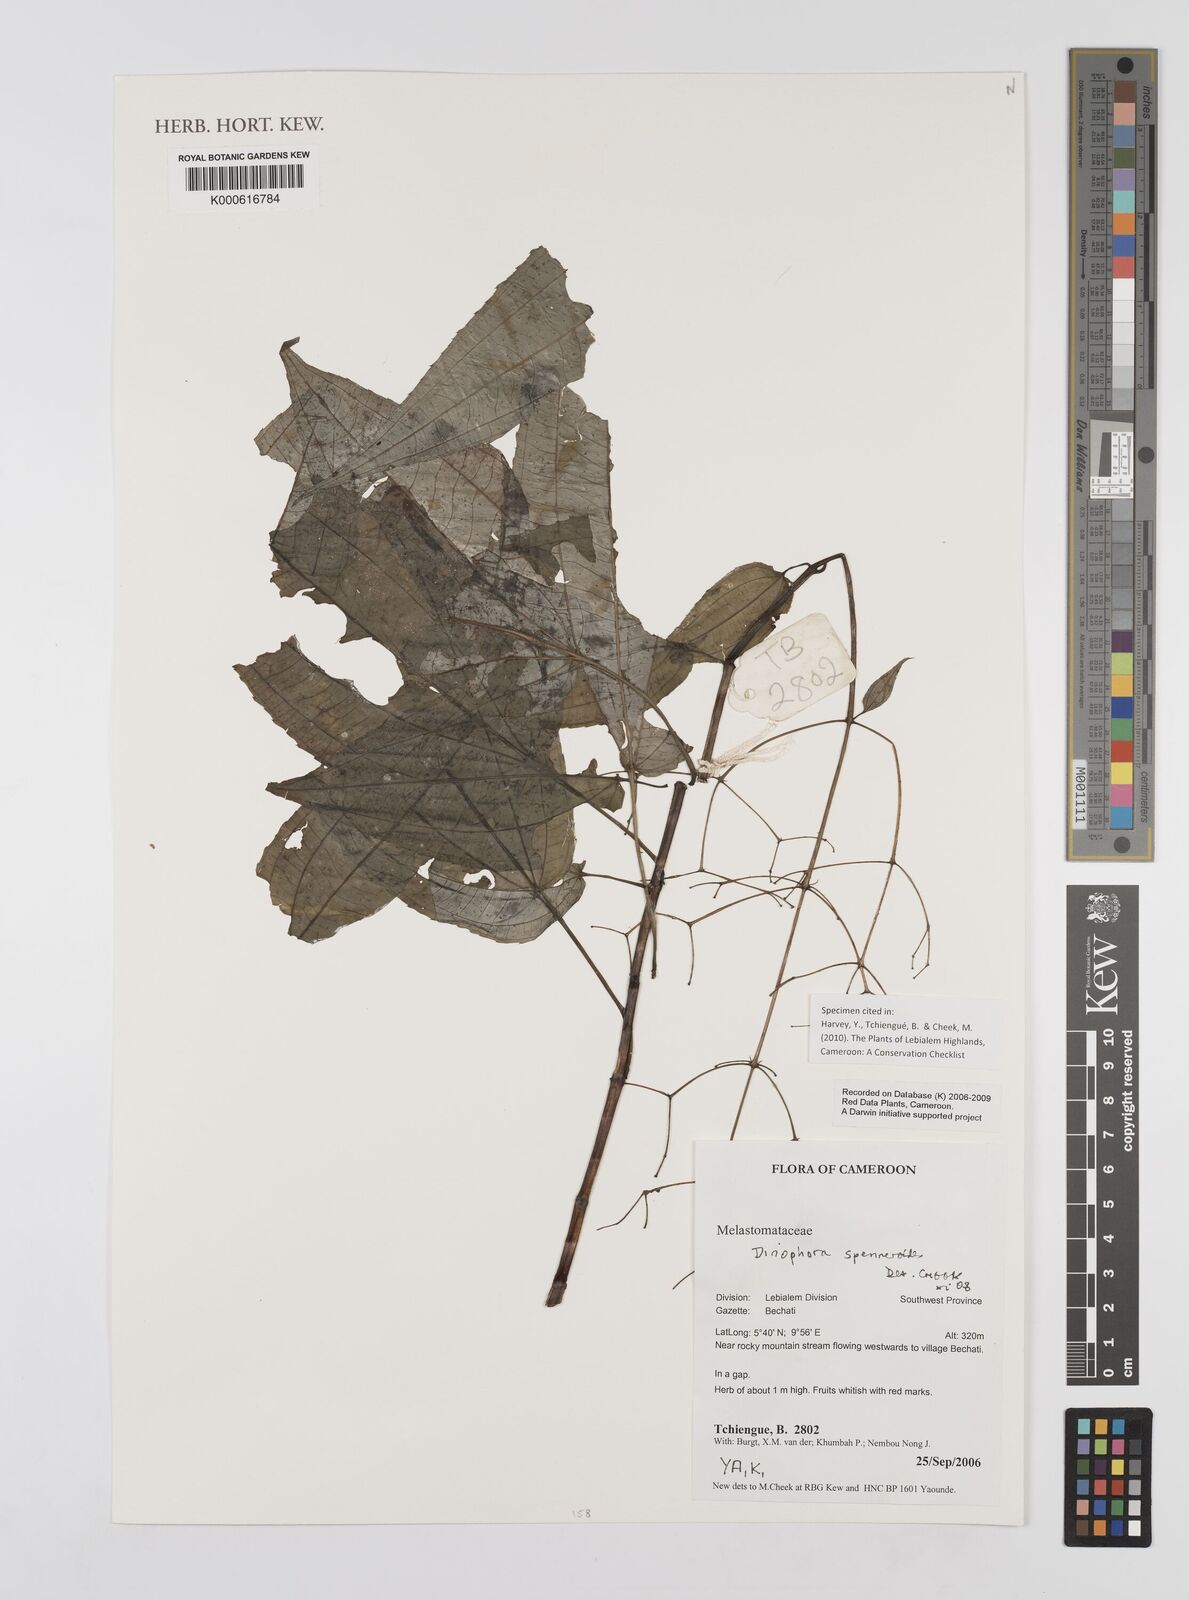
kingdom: Plantae
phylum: Tracheophyta
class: Magnoliopsida
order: Myrtales
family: Melastomataceae
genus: Dinophora
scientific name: Dinophora spenneroides
